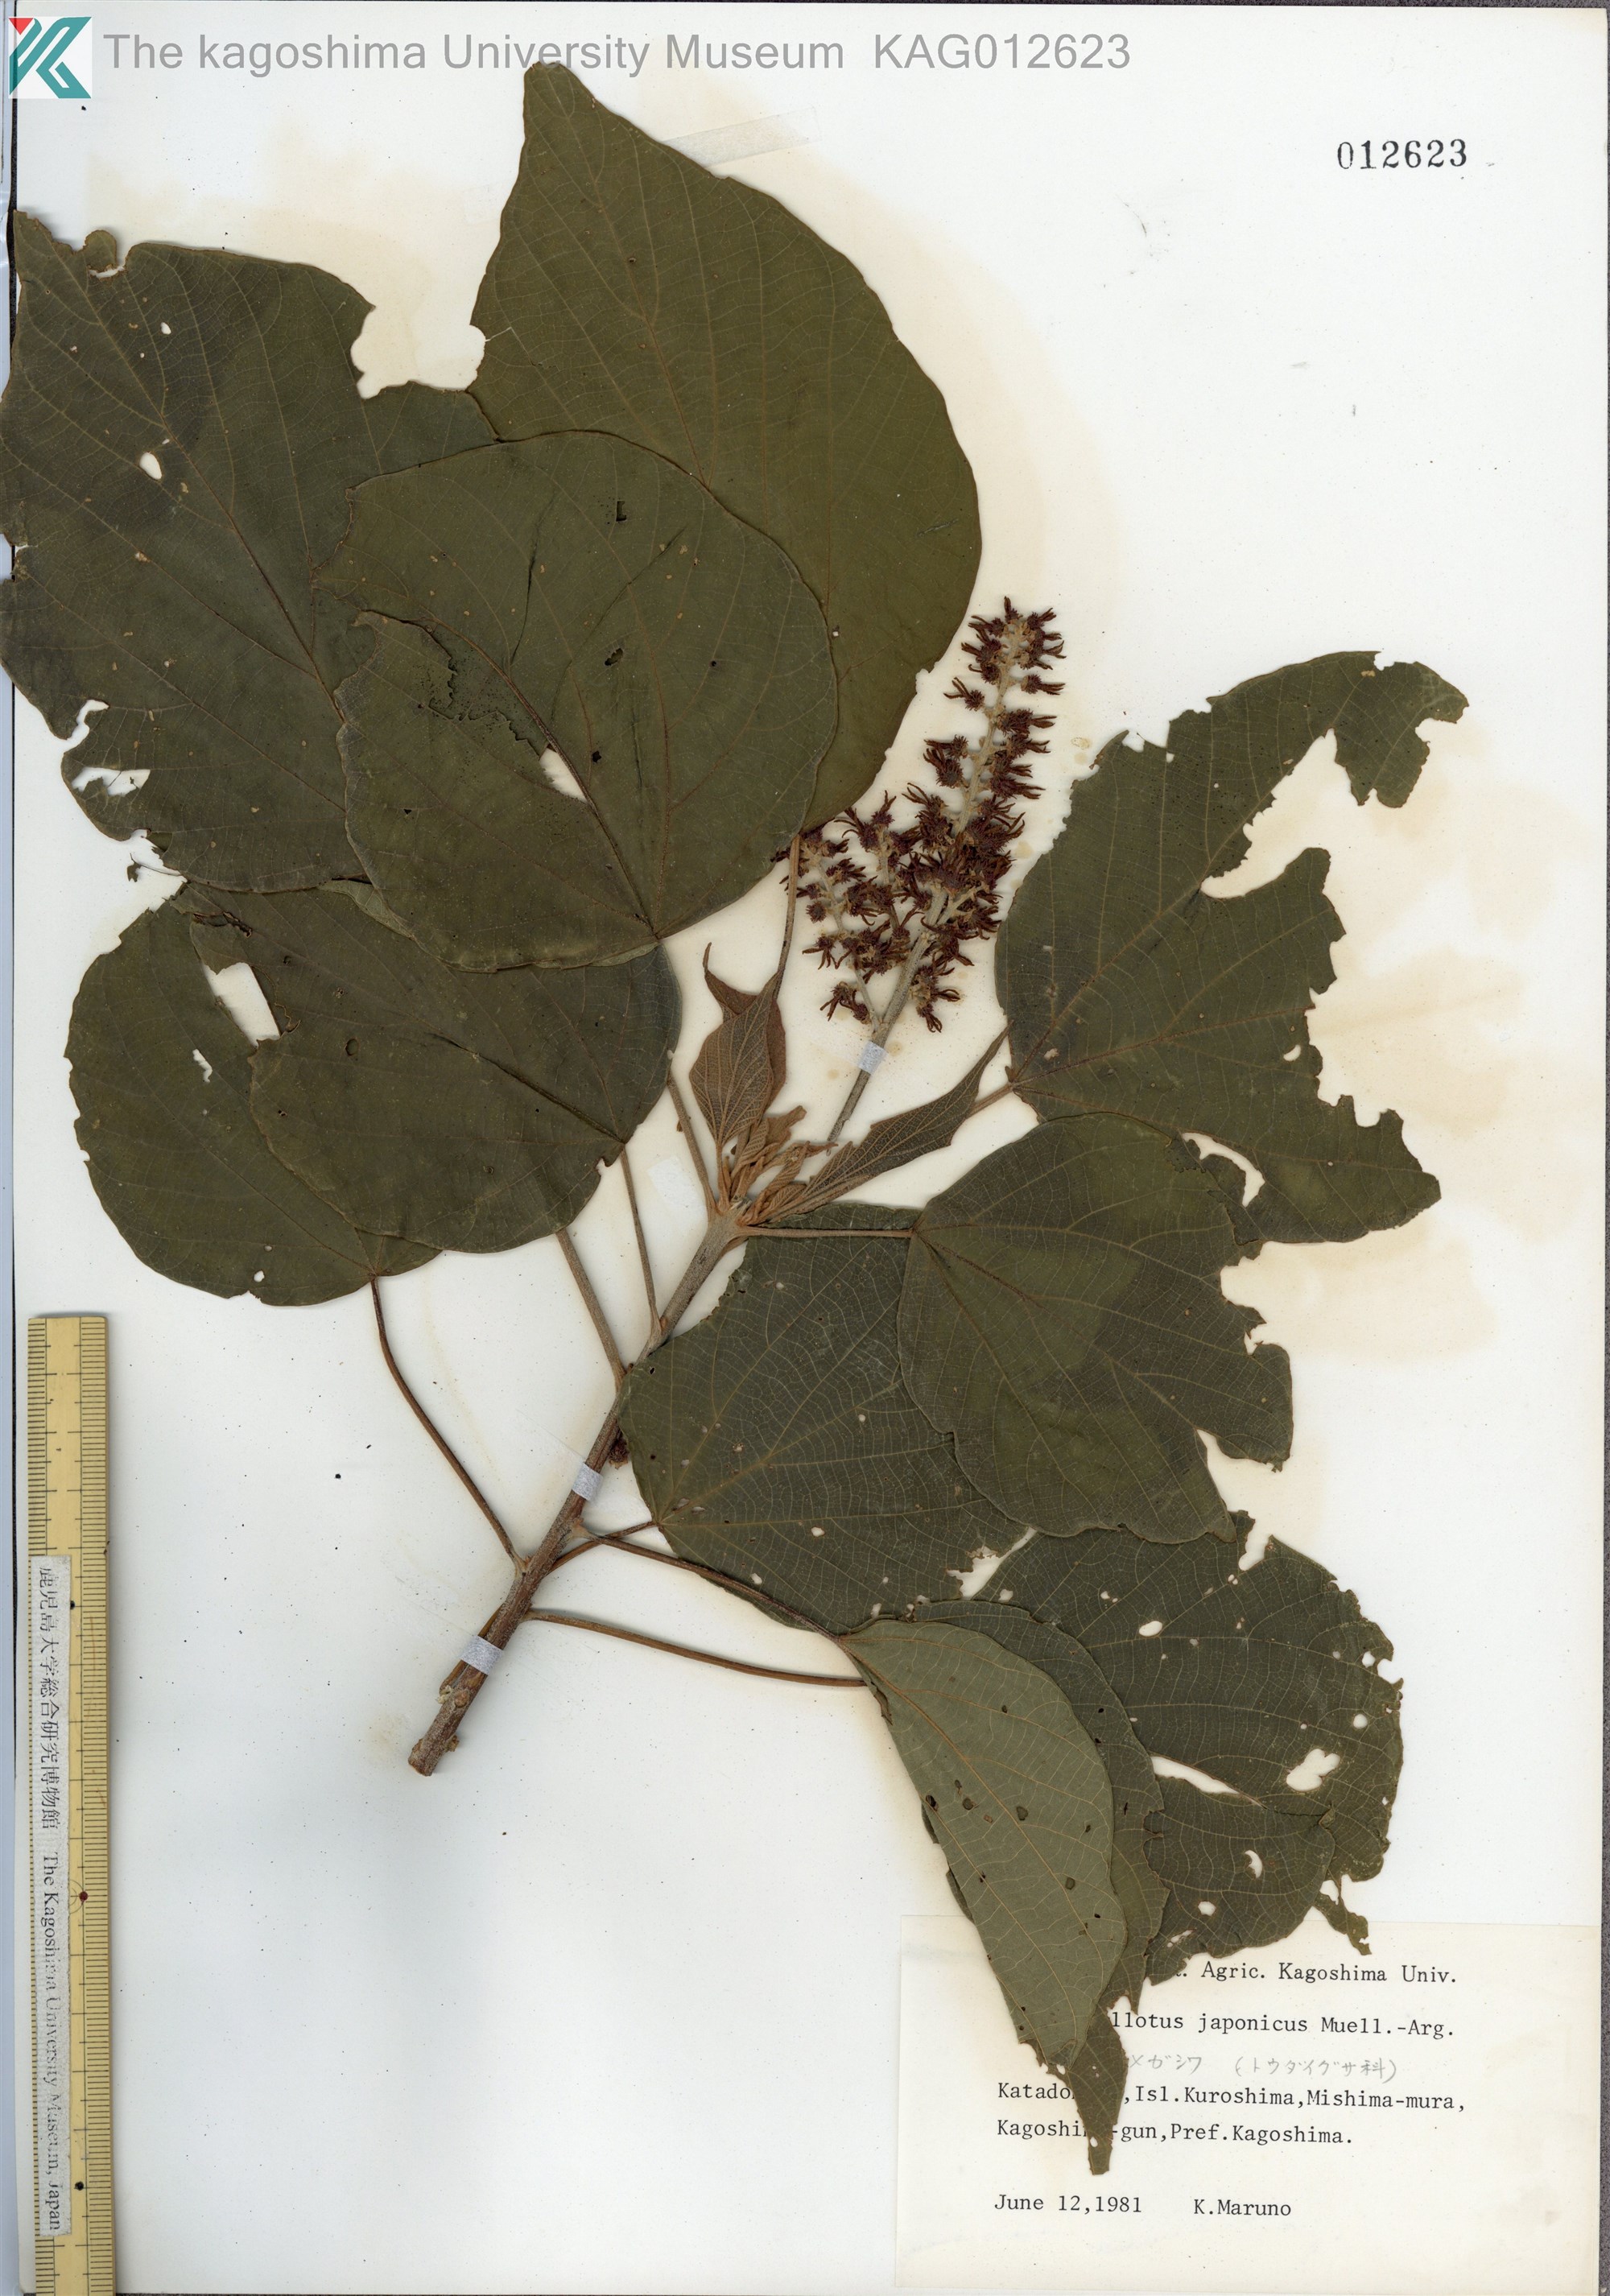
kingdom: Plantae
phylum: Tracheophyta
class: Magnoliopsida
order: Malpighiales
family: Euphorbiaceae
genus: Mallotus
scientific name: Mallotus japonicus
